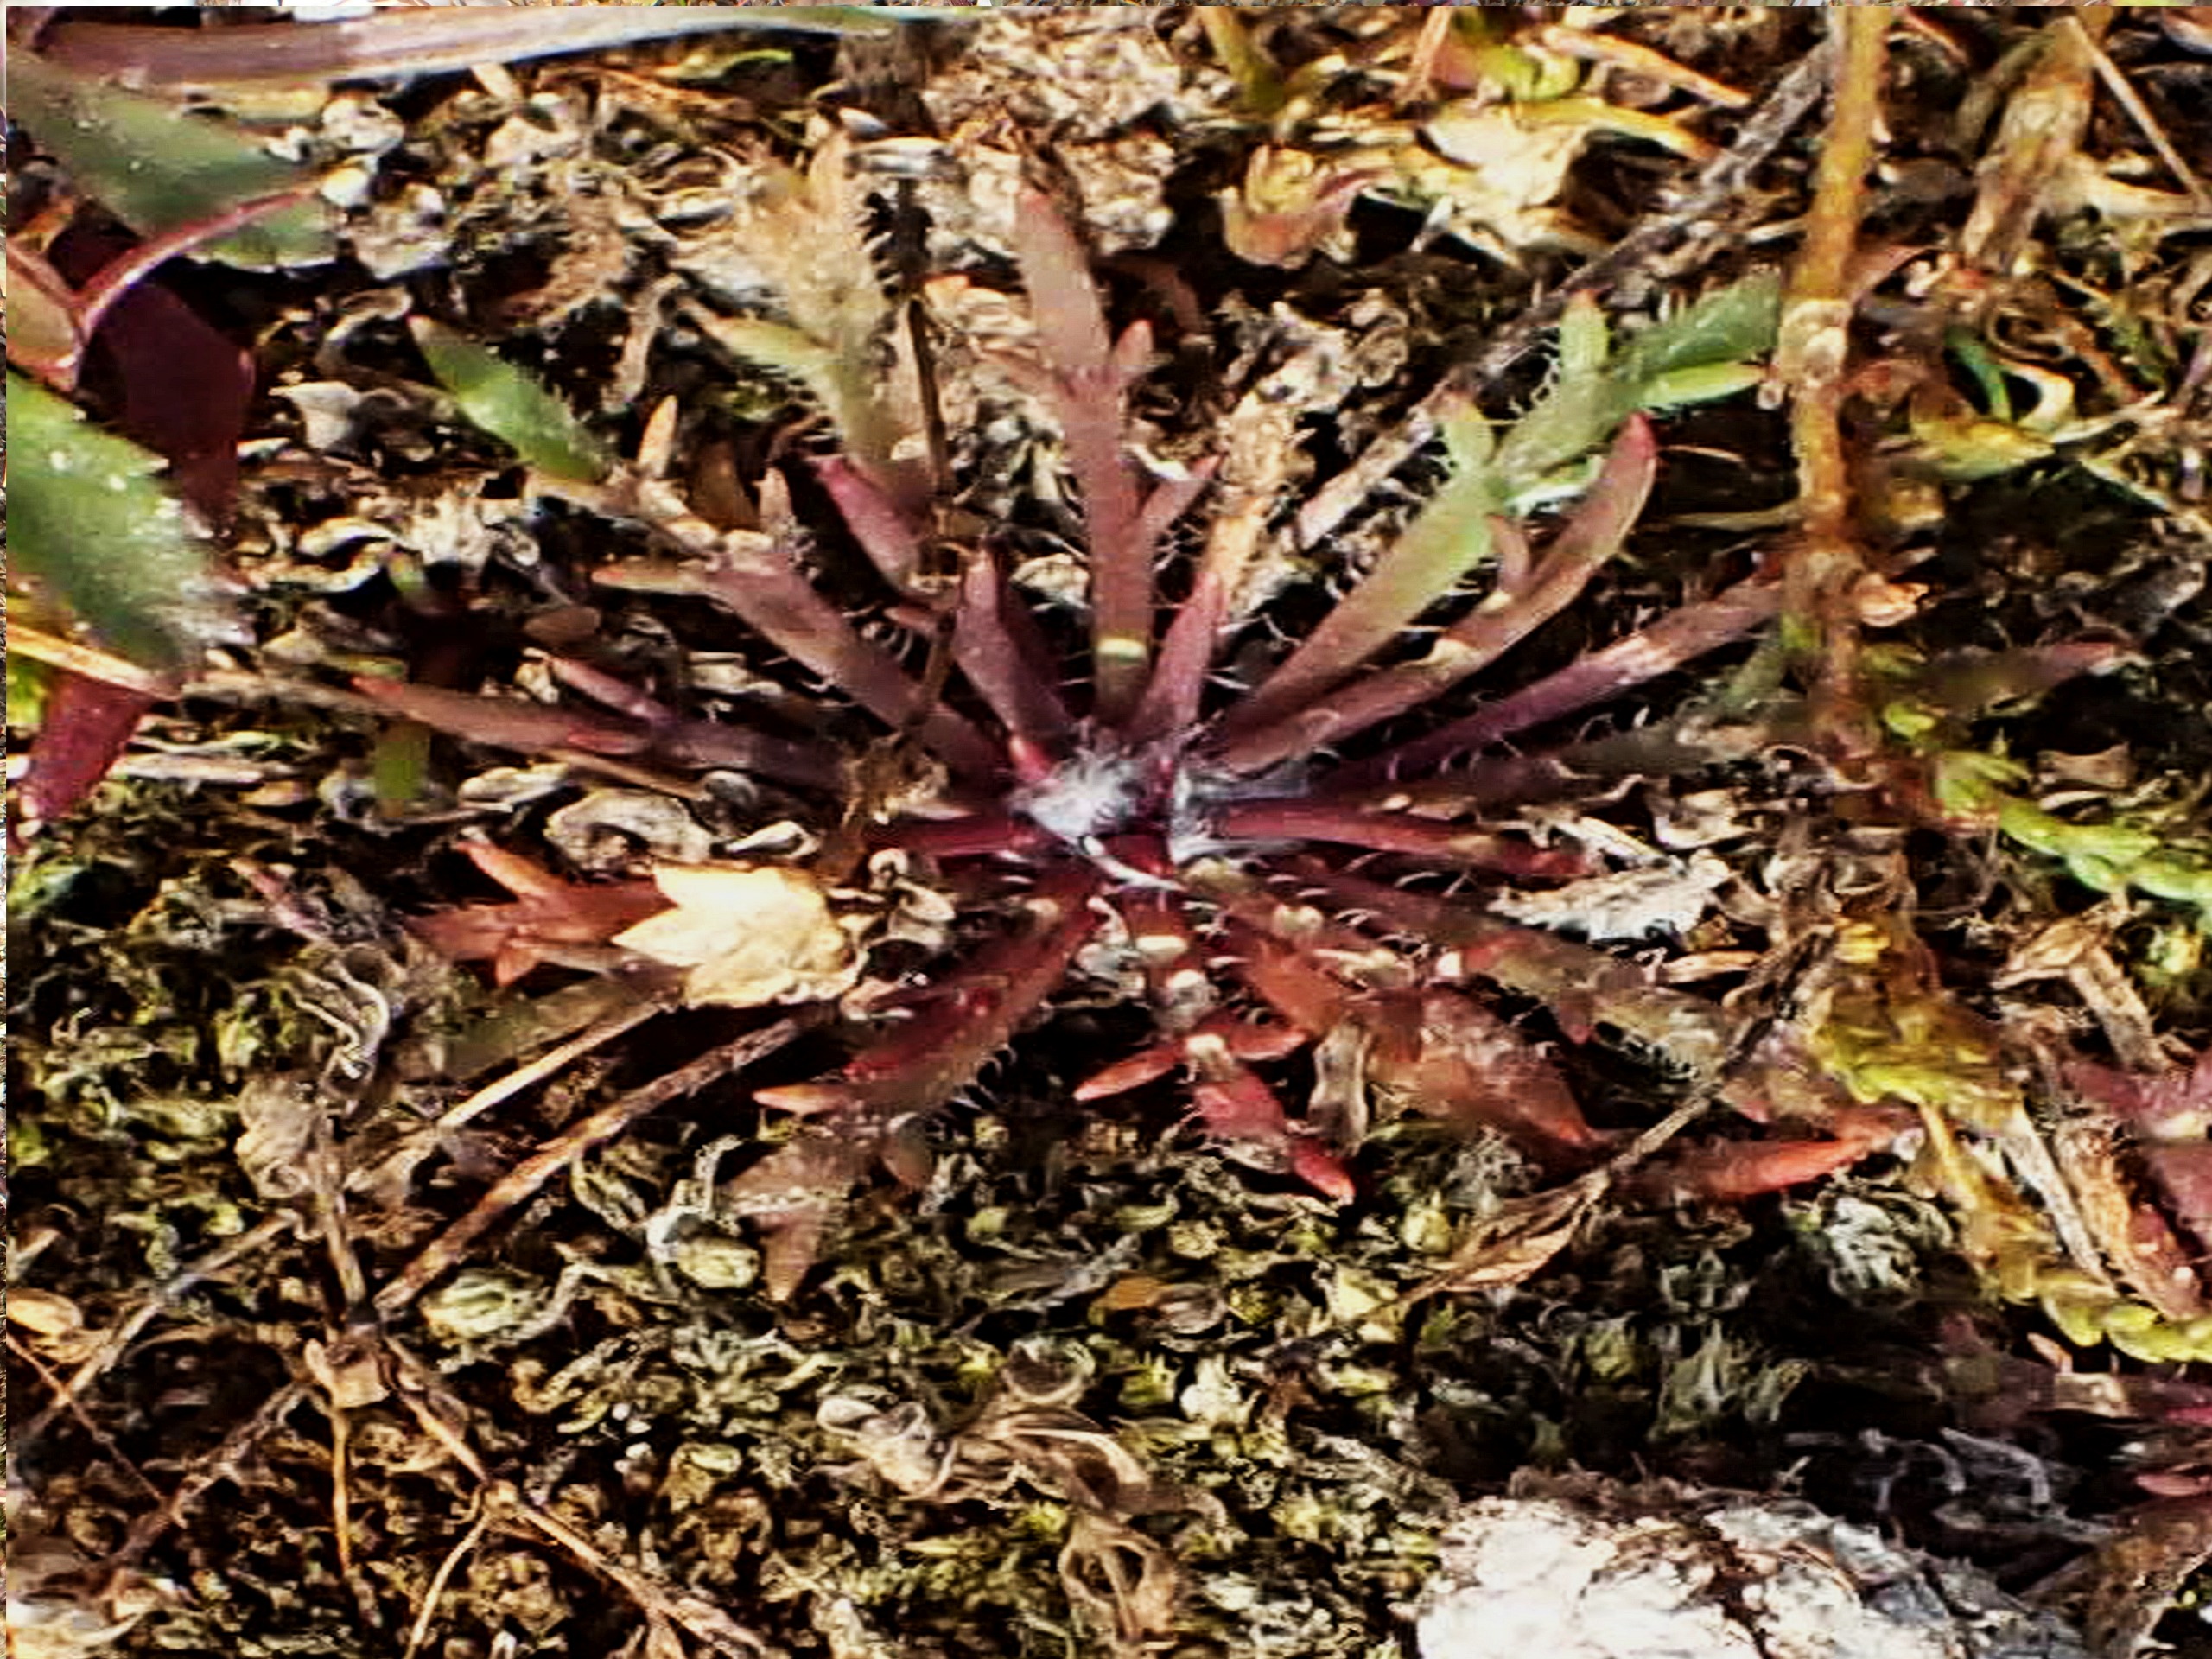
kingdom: Plantae
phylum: Tracheophyta
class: Magnoliopsida
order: Lamiales
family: Plantaginaceae
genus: Plantago
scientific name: Plantago coronopus
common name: Fliget vejbred
